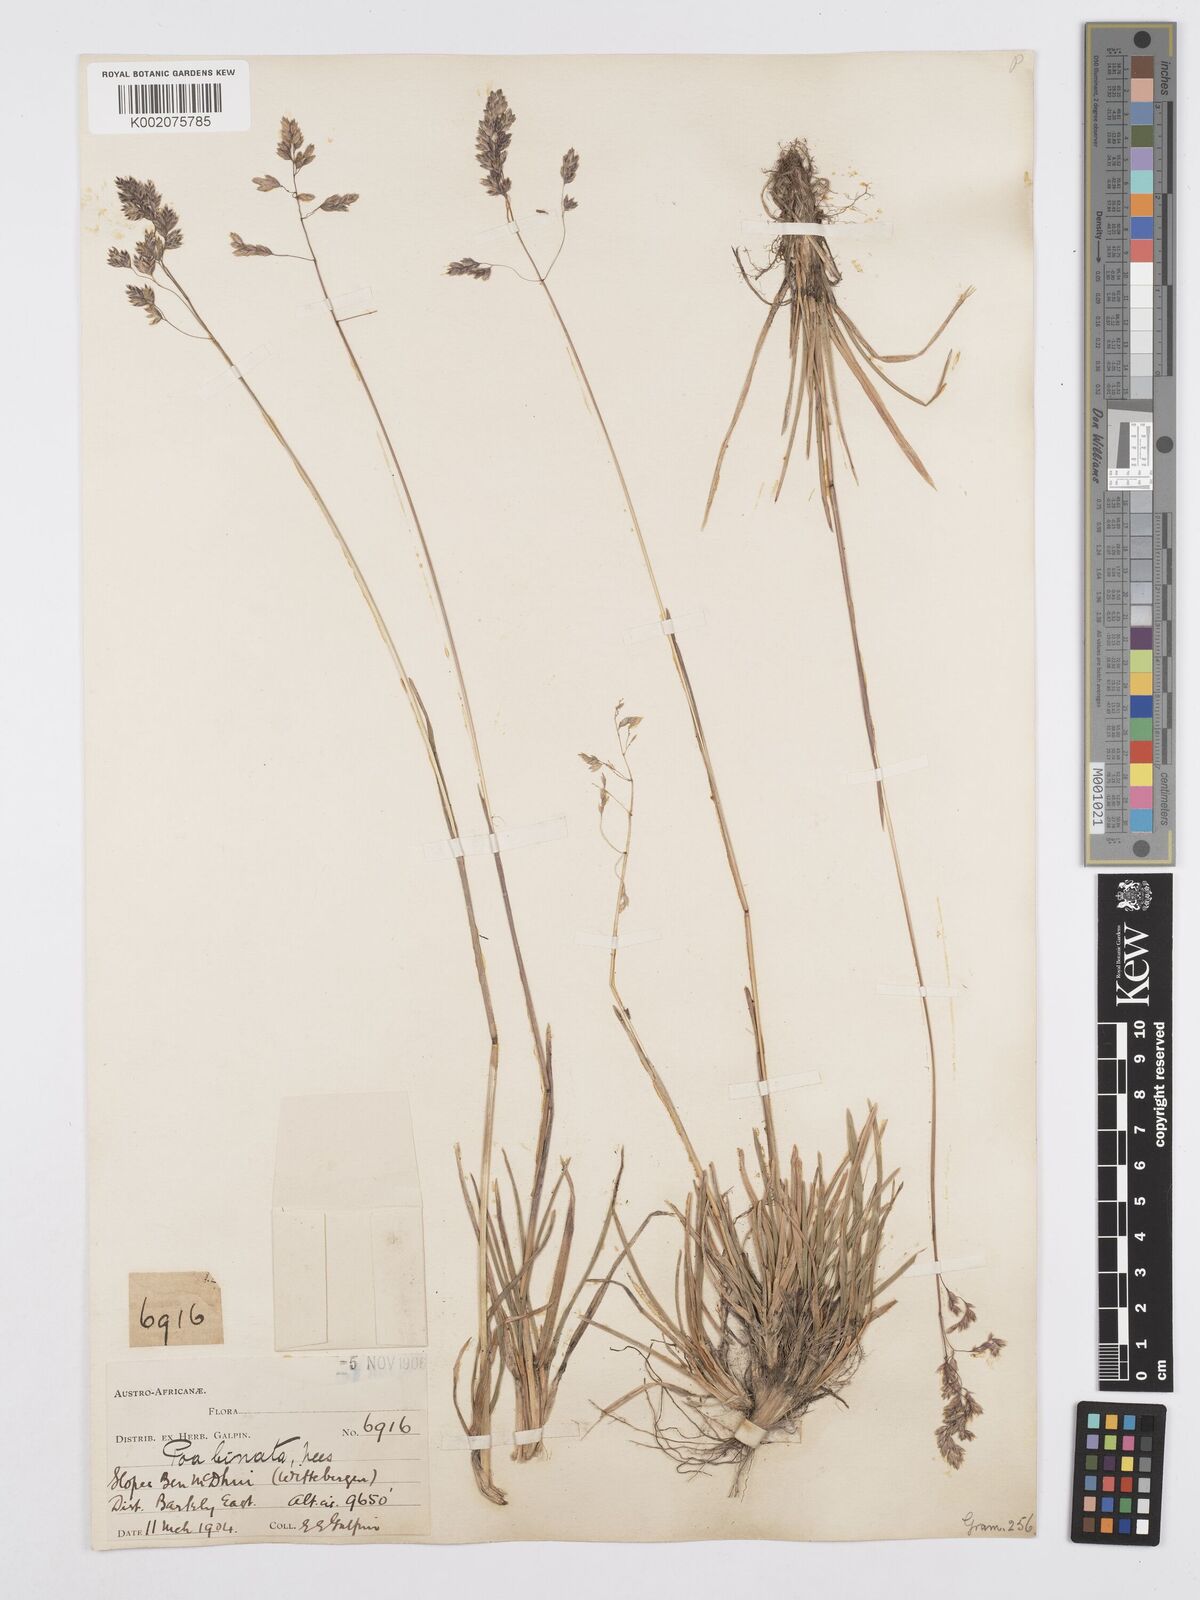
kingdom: Plantae
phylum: Tracheophyta
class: Liliopsida
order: Poales
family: Poaceae
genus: Poa
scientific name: Poa binata
